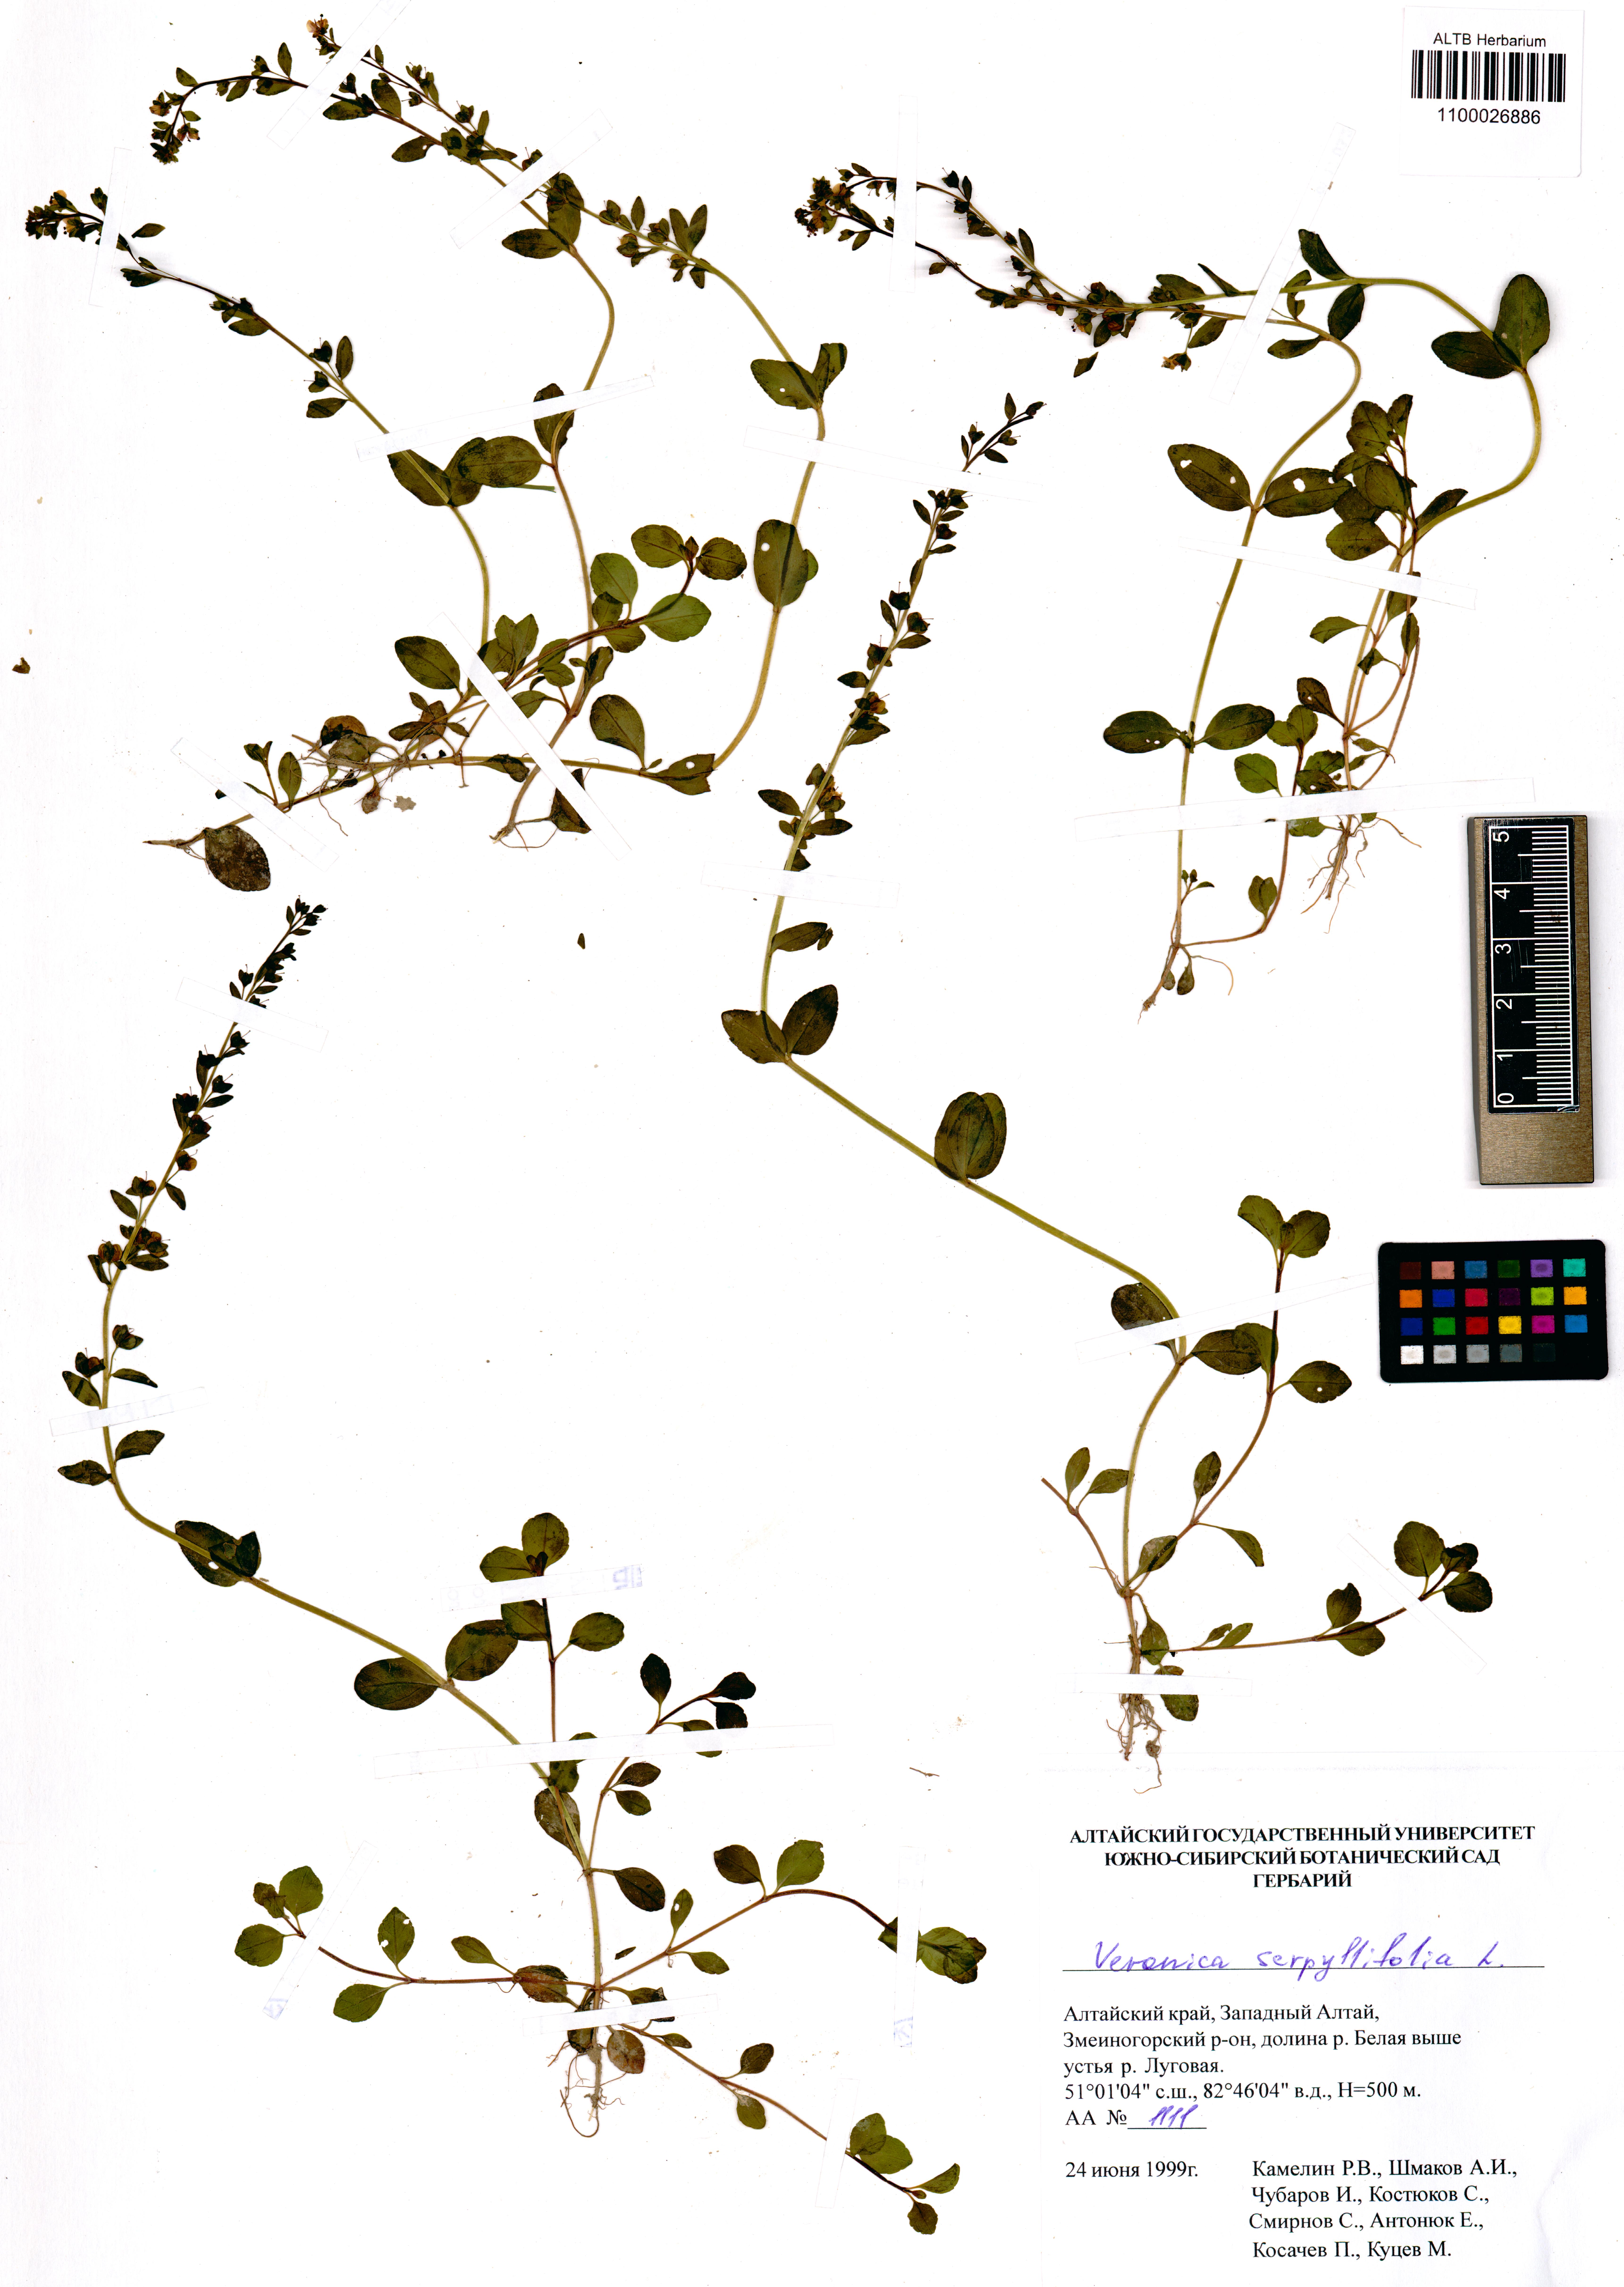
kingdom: Plantae
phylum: Tracheophyta
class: Magnoliopsida
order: Lamiales
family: Plantaginaceae
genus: Veronica
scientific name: Veronica serpyllifolia
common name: Thyme-leaved speedwell
